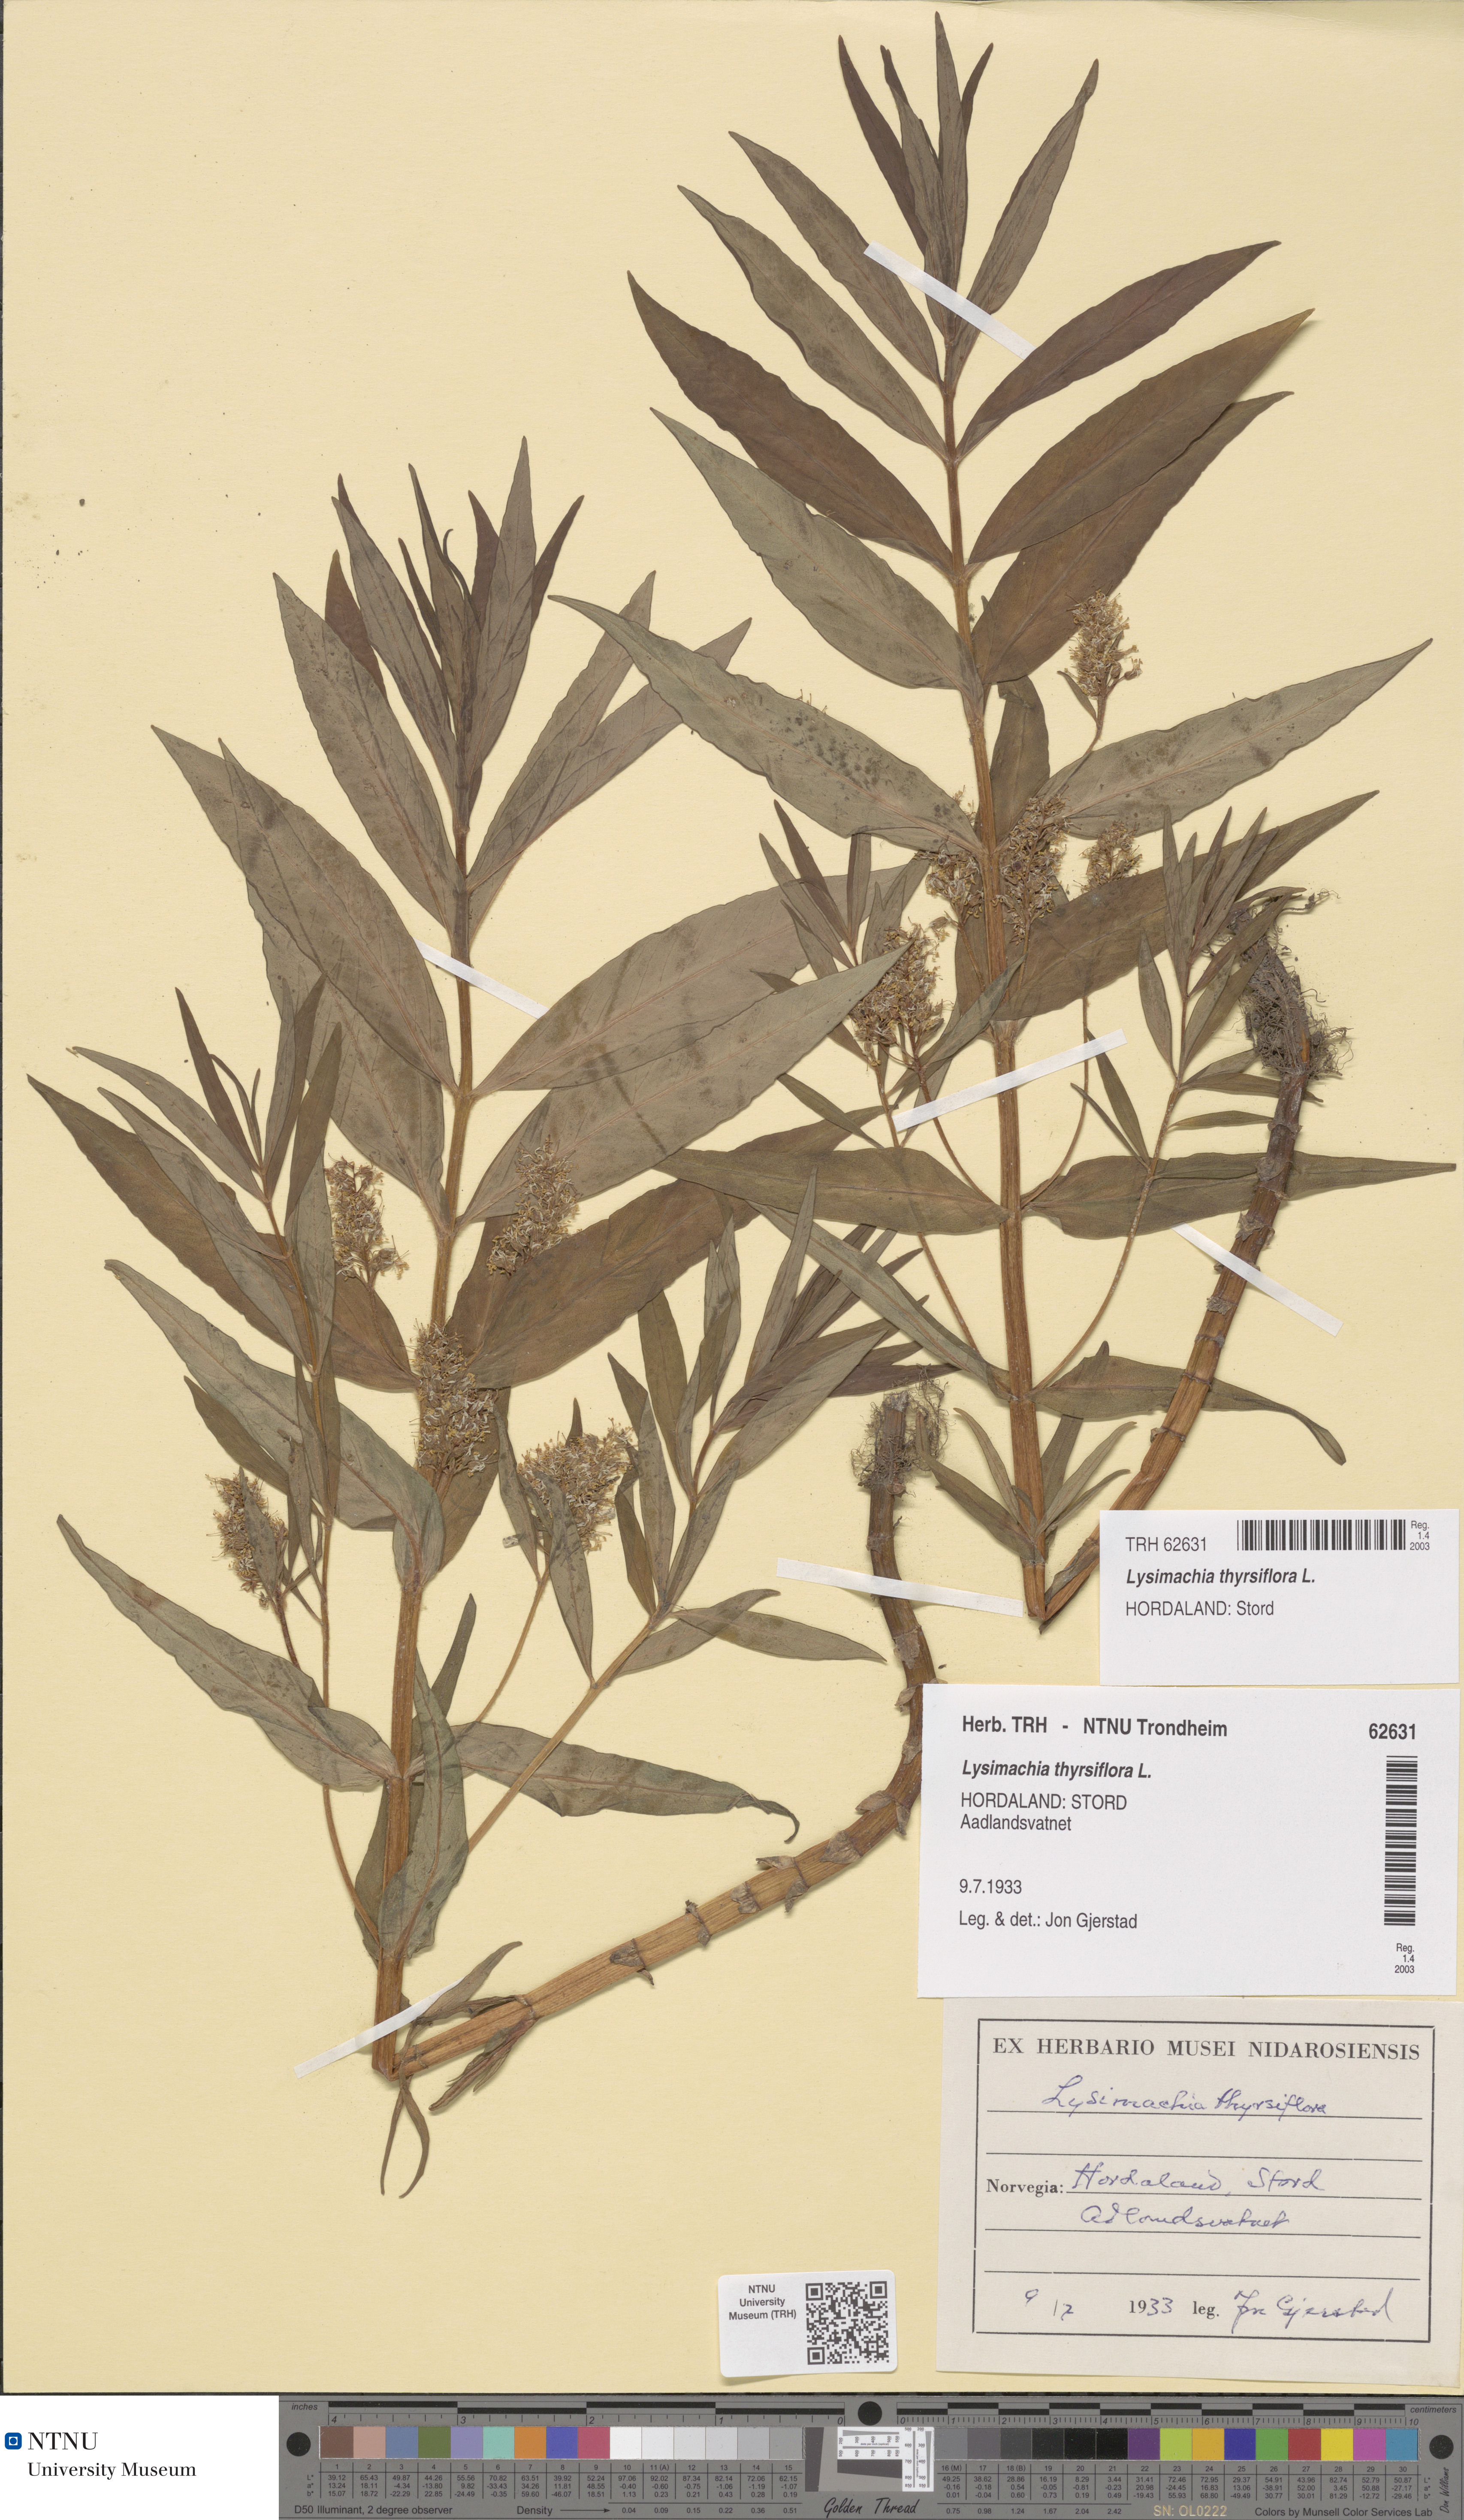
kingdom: Plantae
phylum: Tracheophyta
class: Magnoliopsida
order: Ericales
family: Primulaceae
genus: Lysimachia
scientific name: Lysimachia thyrsiflora
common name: Tufted loosestrife
